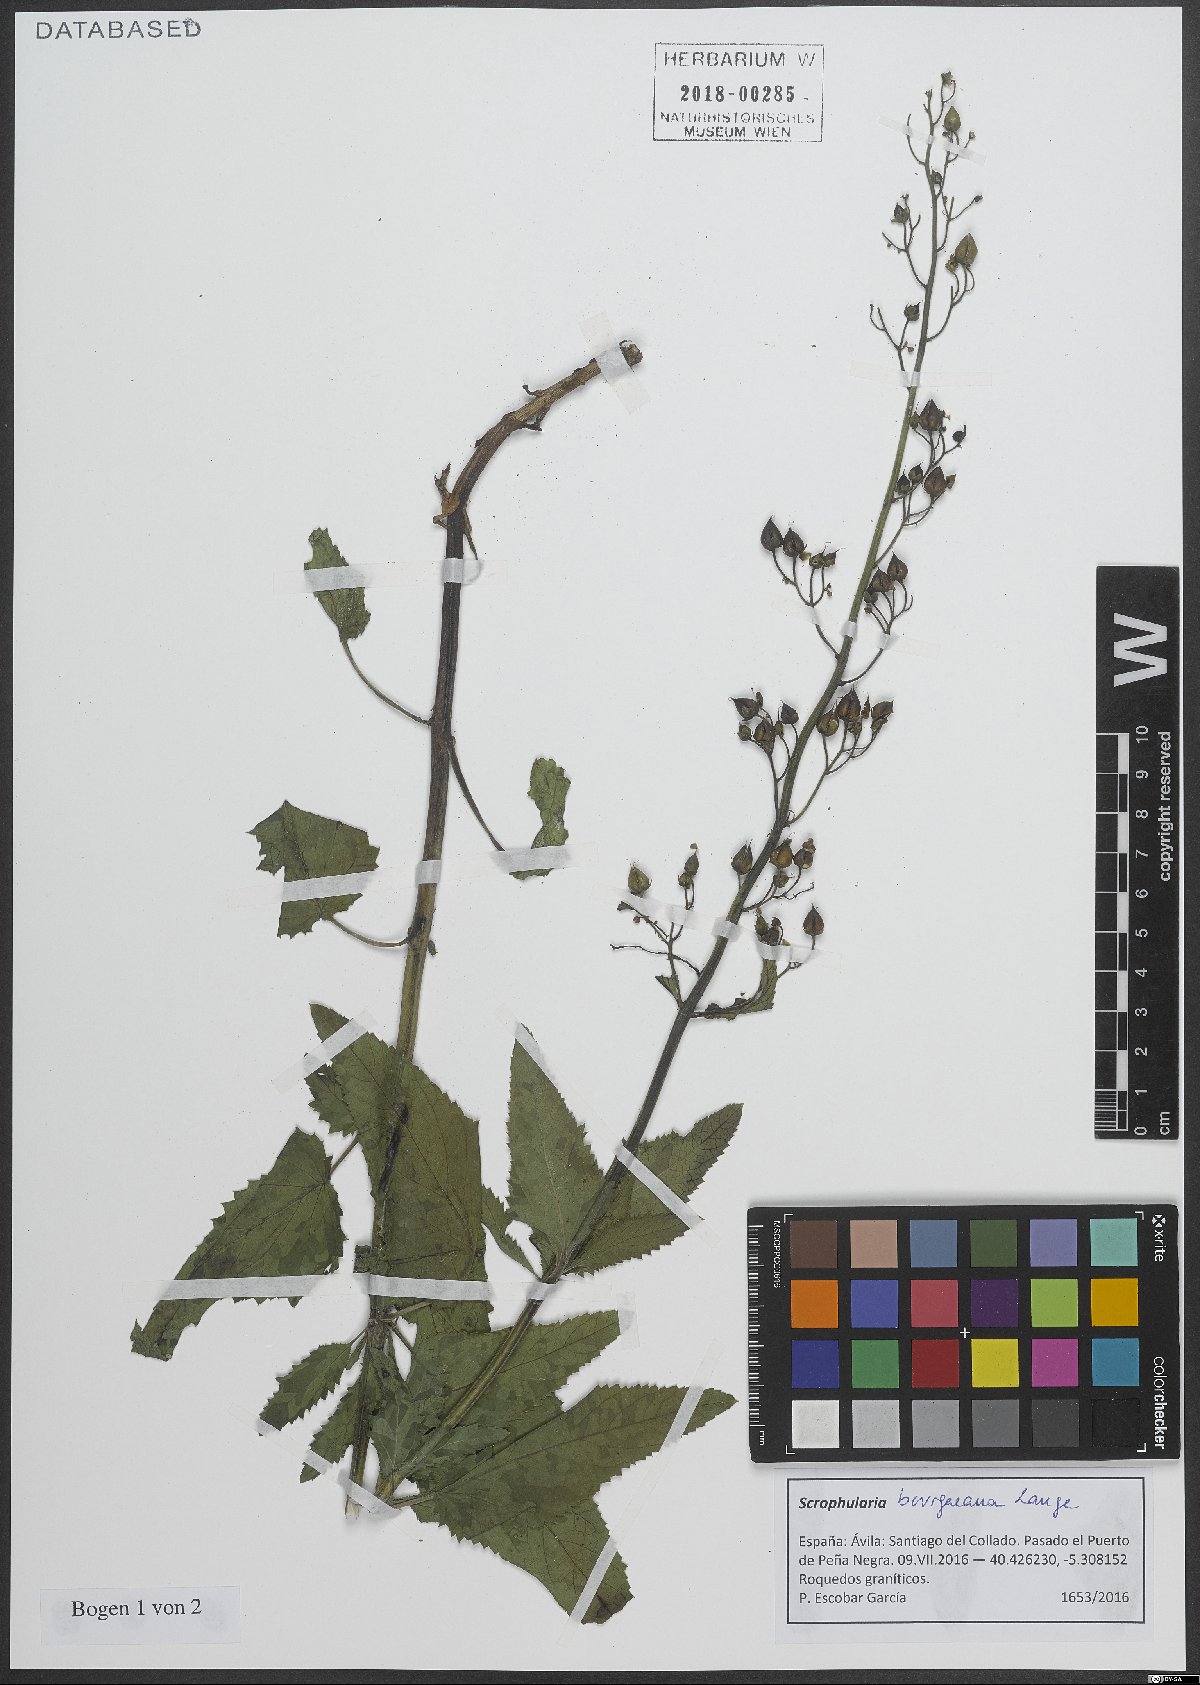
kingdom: Plantae
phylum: Tracheophyta
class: Magnoliopsida
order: Lamiales
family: Scrophulariaceae
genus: Scrophularia
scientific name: Scrophularia bourgaeana
